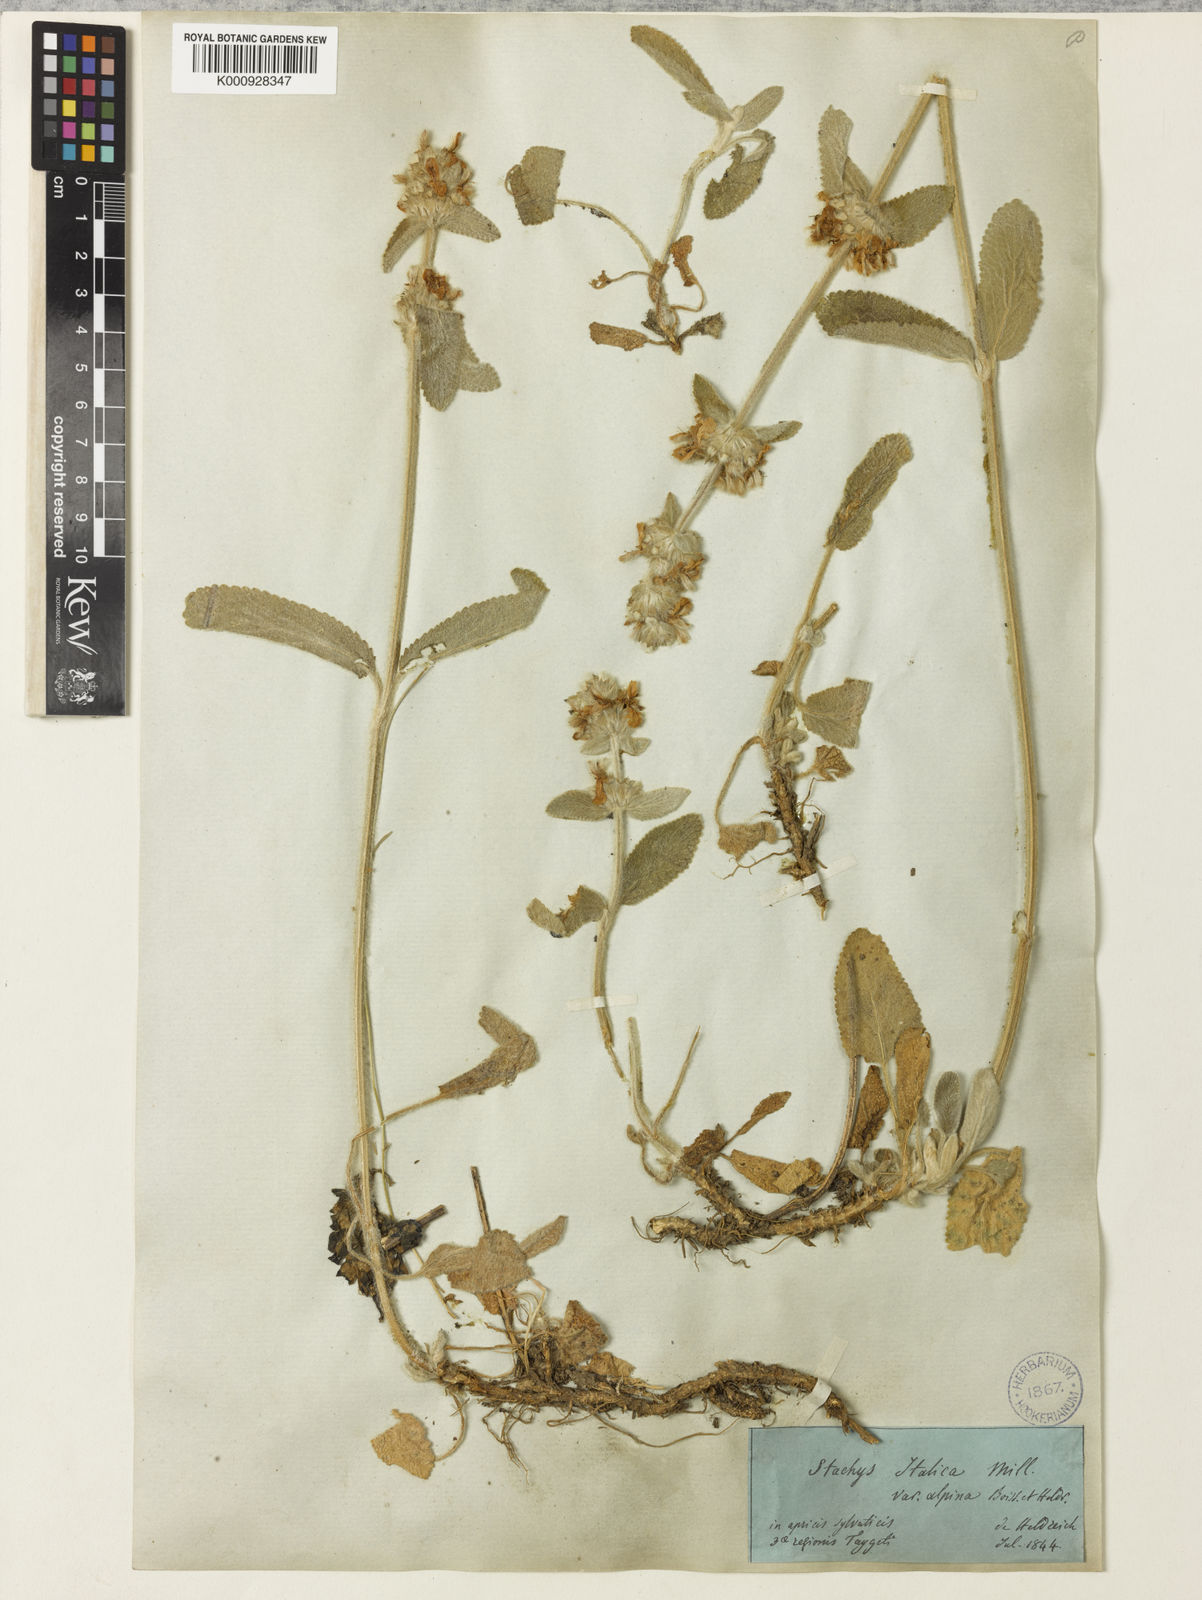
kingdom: Plantae
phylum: Tracheophyta
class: Magnoliopsida
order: Lamiales
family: Lamiaceae
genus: Stachys
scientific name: Stachys cretica
